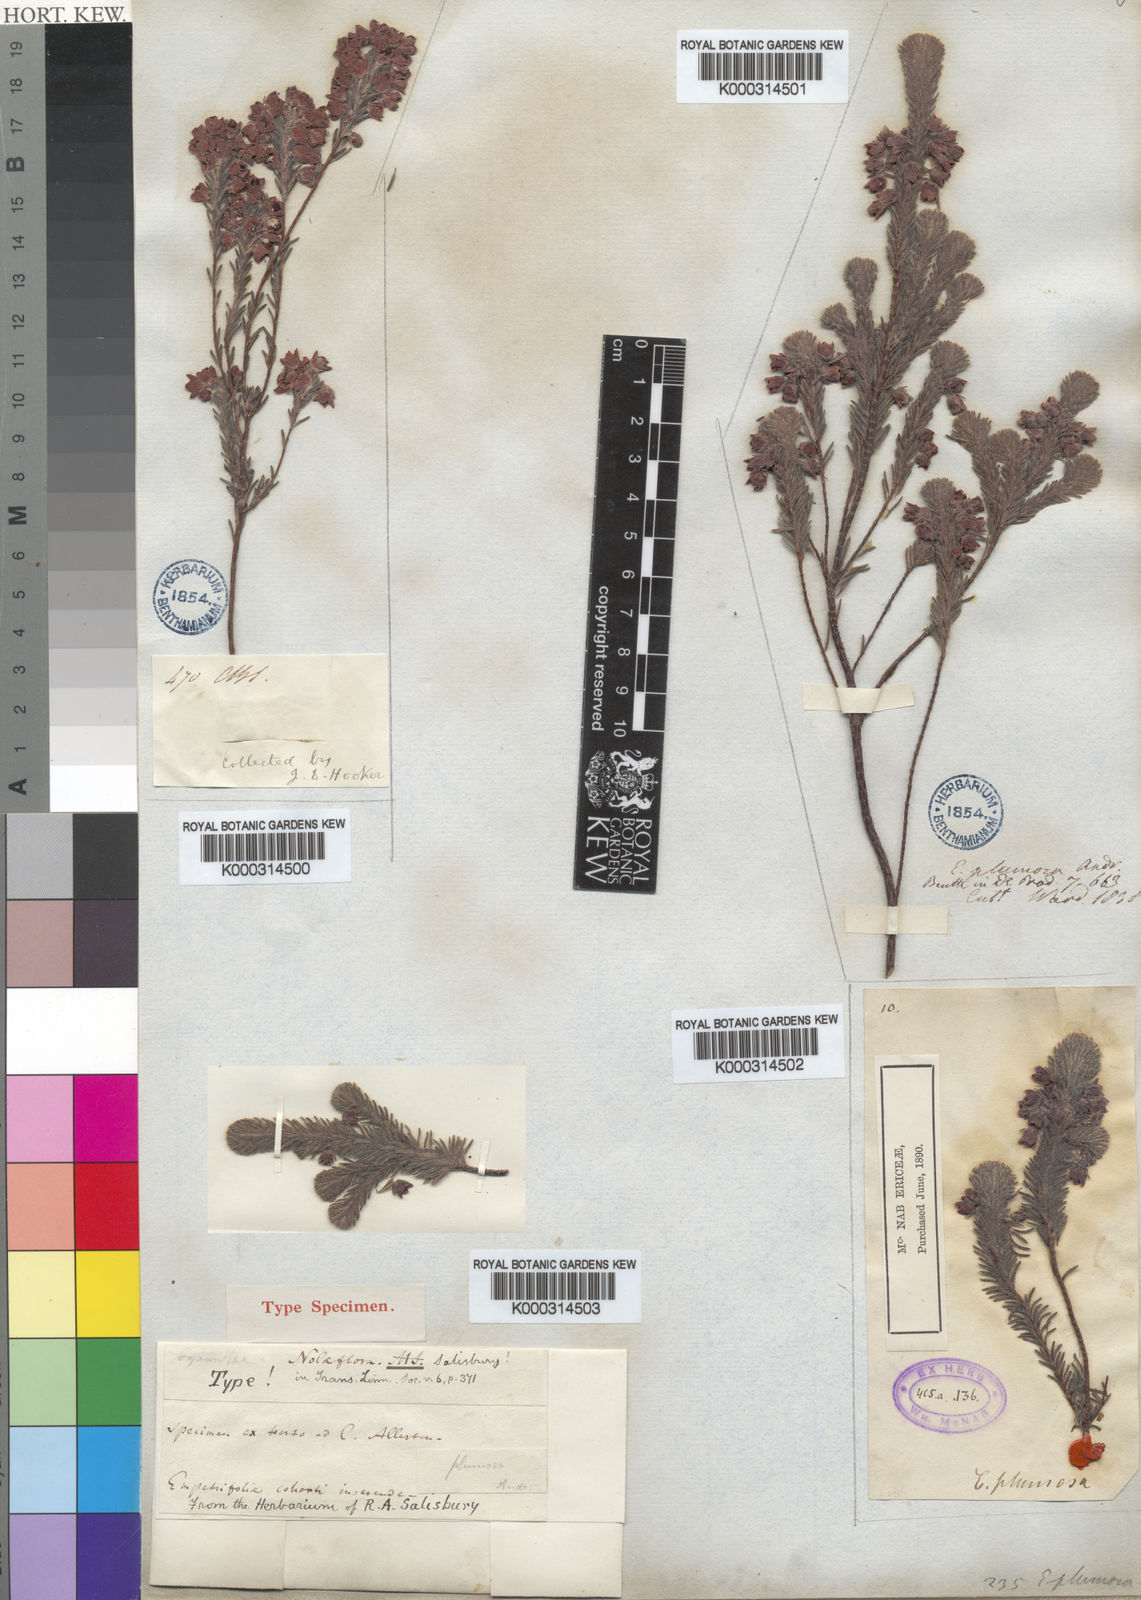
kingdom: Plantae
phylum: Tracheophyta
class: Magnoliopsida
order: Ericales
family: Ericaceae
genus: Erica
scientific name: Erica
